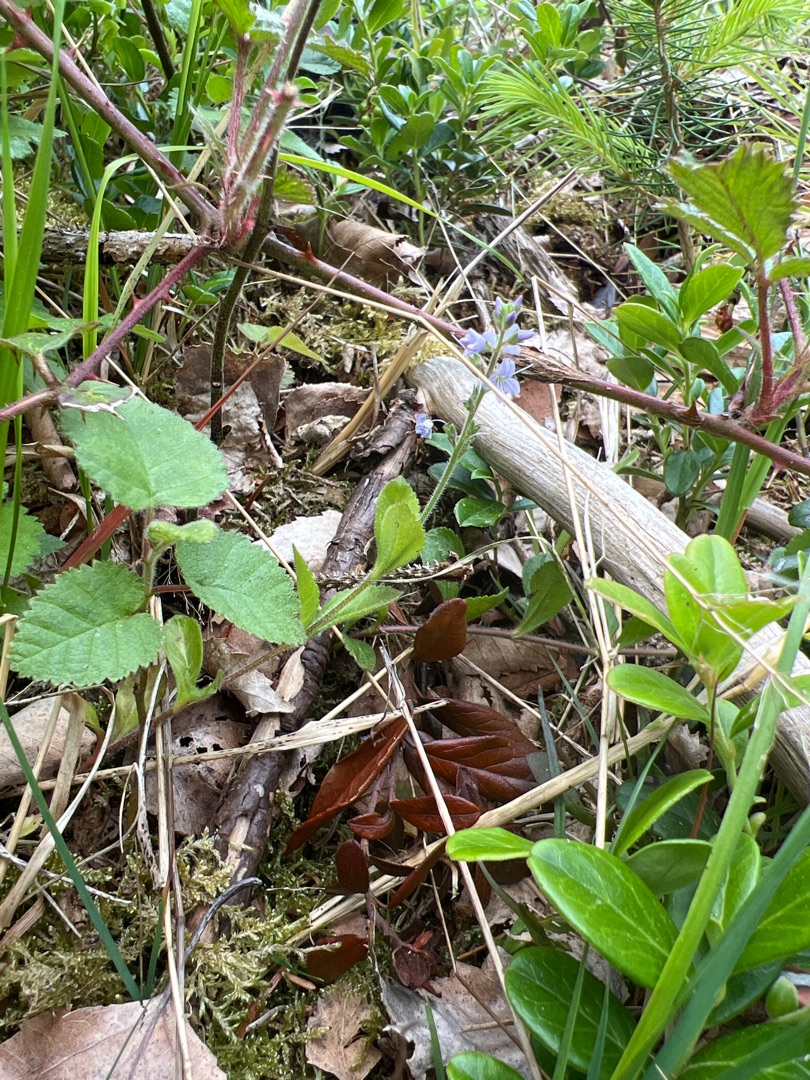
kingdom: Plantae
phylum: Tracheophyta
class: Magnoliopsida
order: Lamiales
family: Plantaginaceae
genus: Veronica
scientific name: Veronica officinalis
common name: Læge-ærenpris
